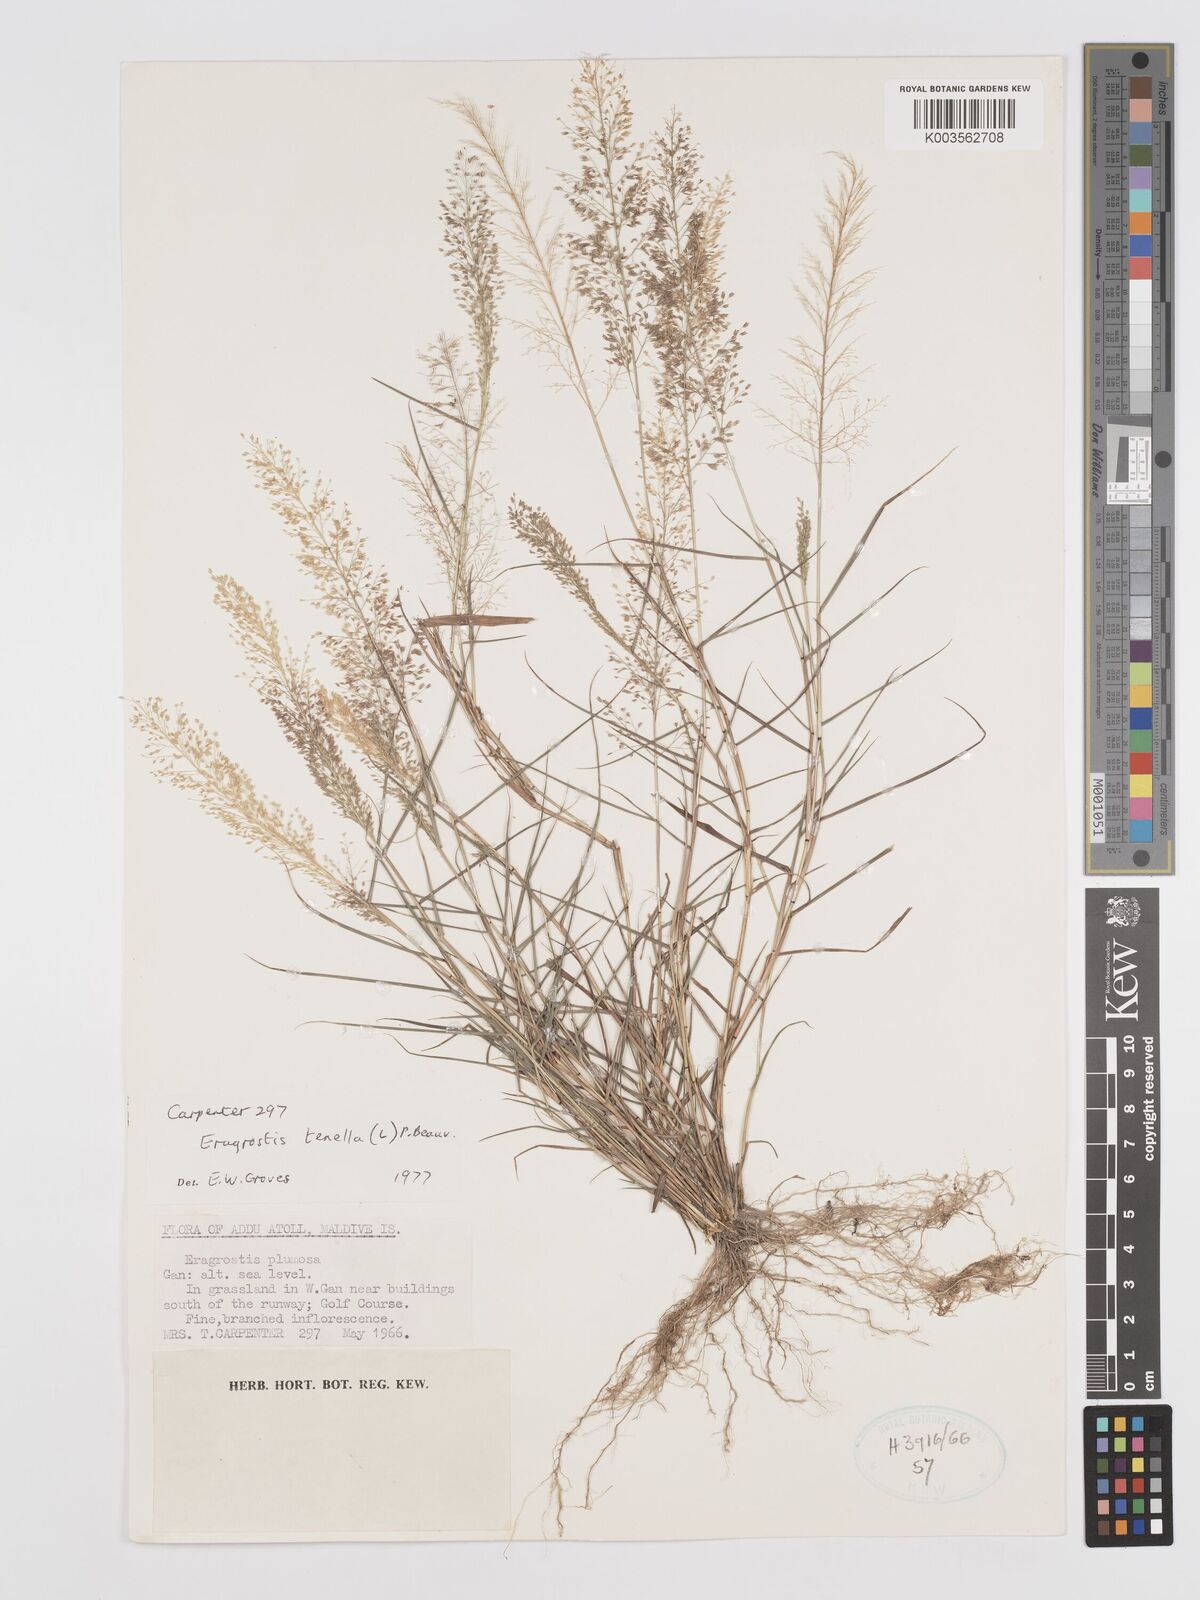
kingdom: Plantae
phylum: Tracheophyta
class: Liliopsida
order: Poales
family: Poaceae
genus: Eragrostis
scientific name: Eragrostis tenella
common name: Japanese lovegrass
